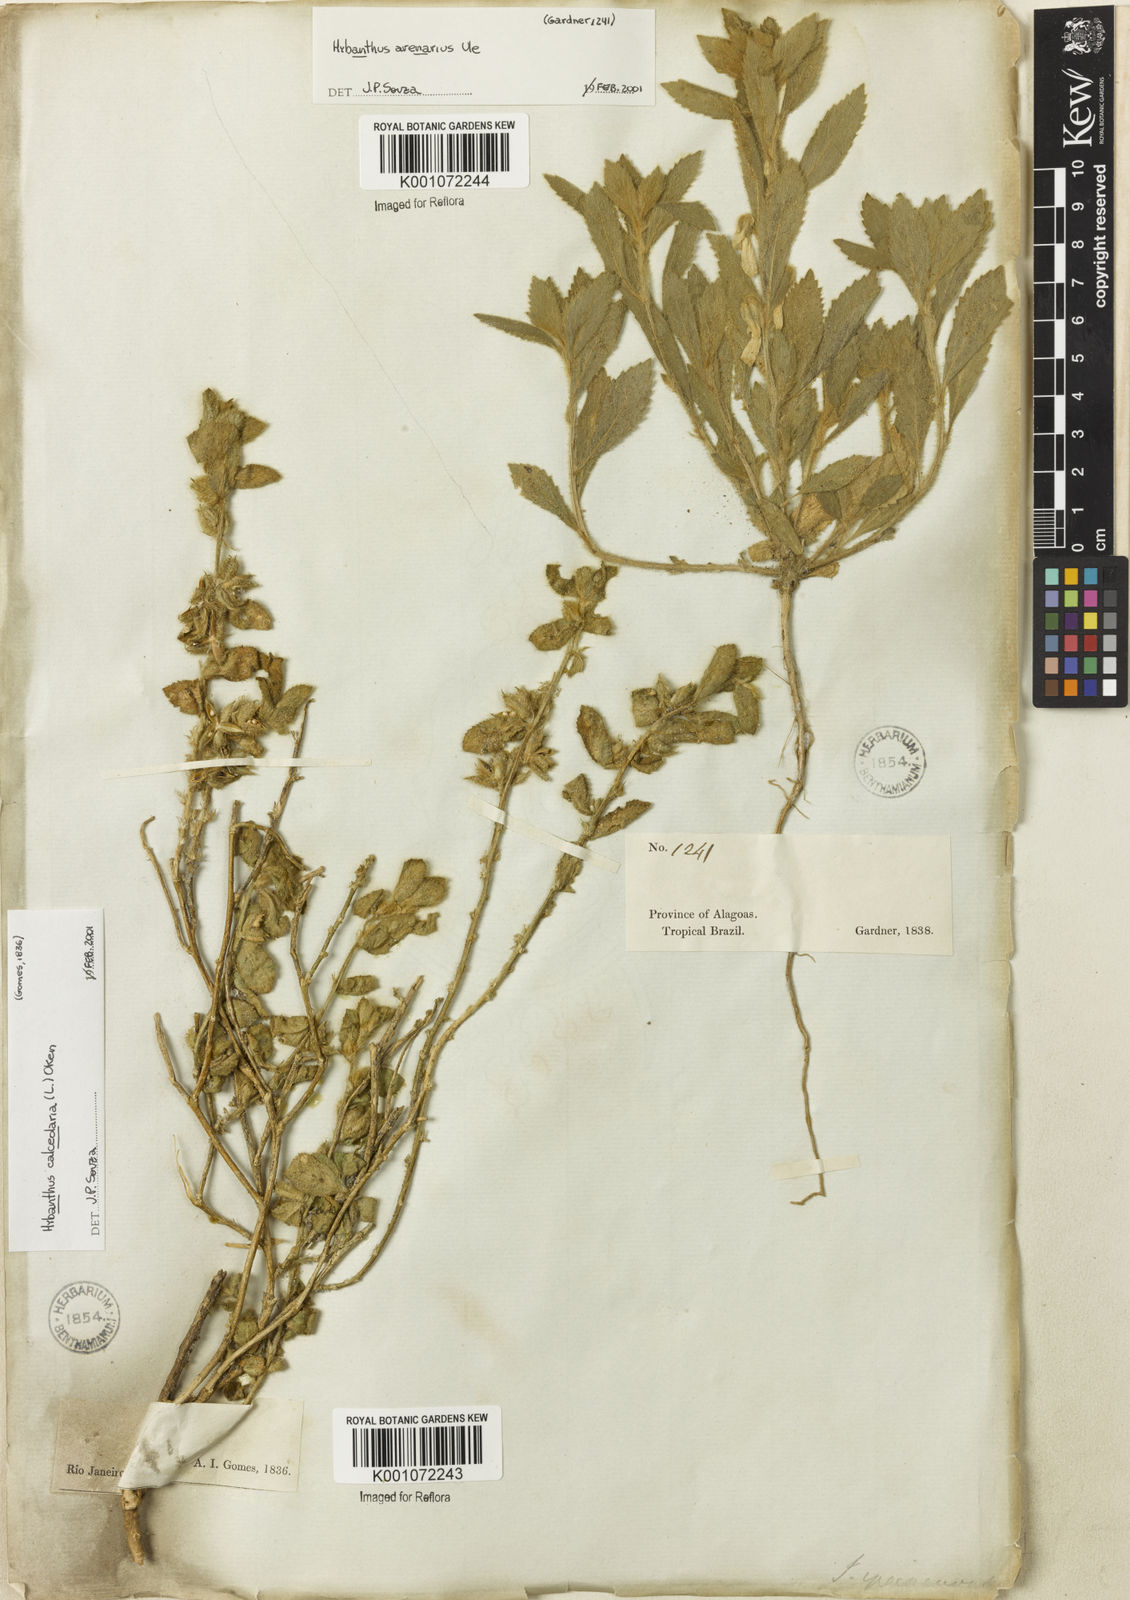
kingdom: Plantae
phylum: Tracheophyta
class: Magnoliopsida
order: Malpighiales
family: Violaceae
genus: Pombalia
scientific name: Pombalia calceolaria
